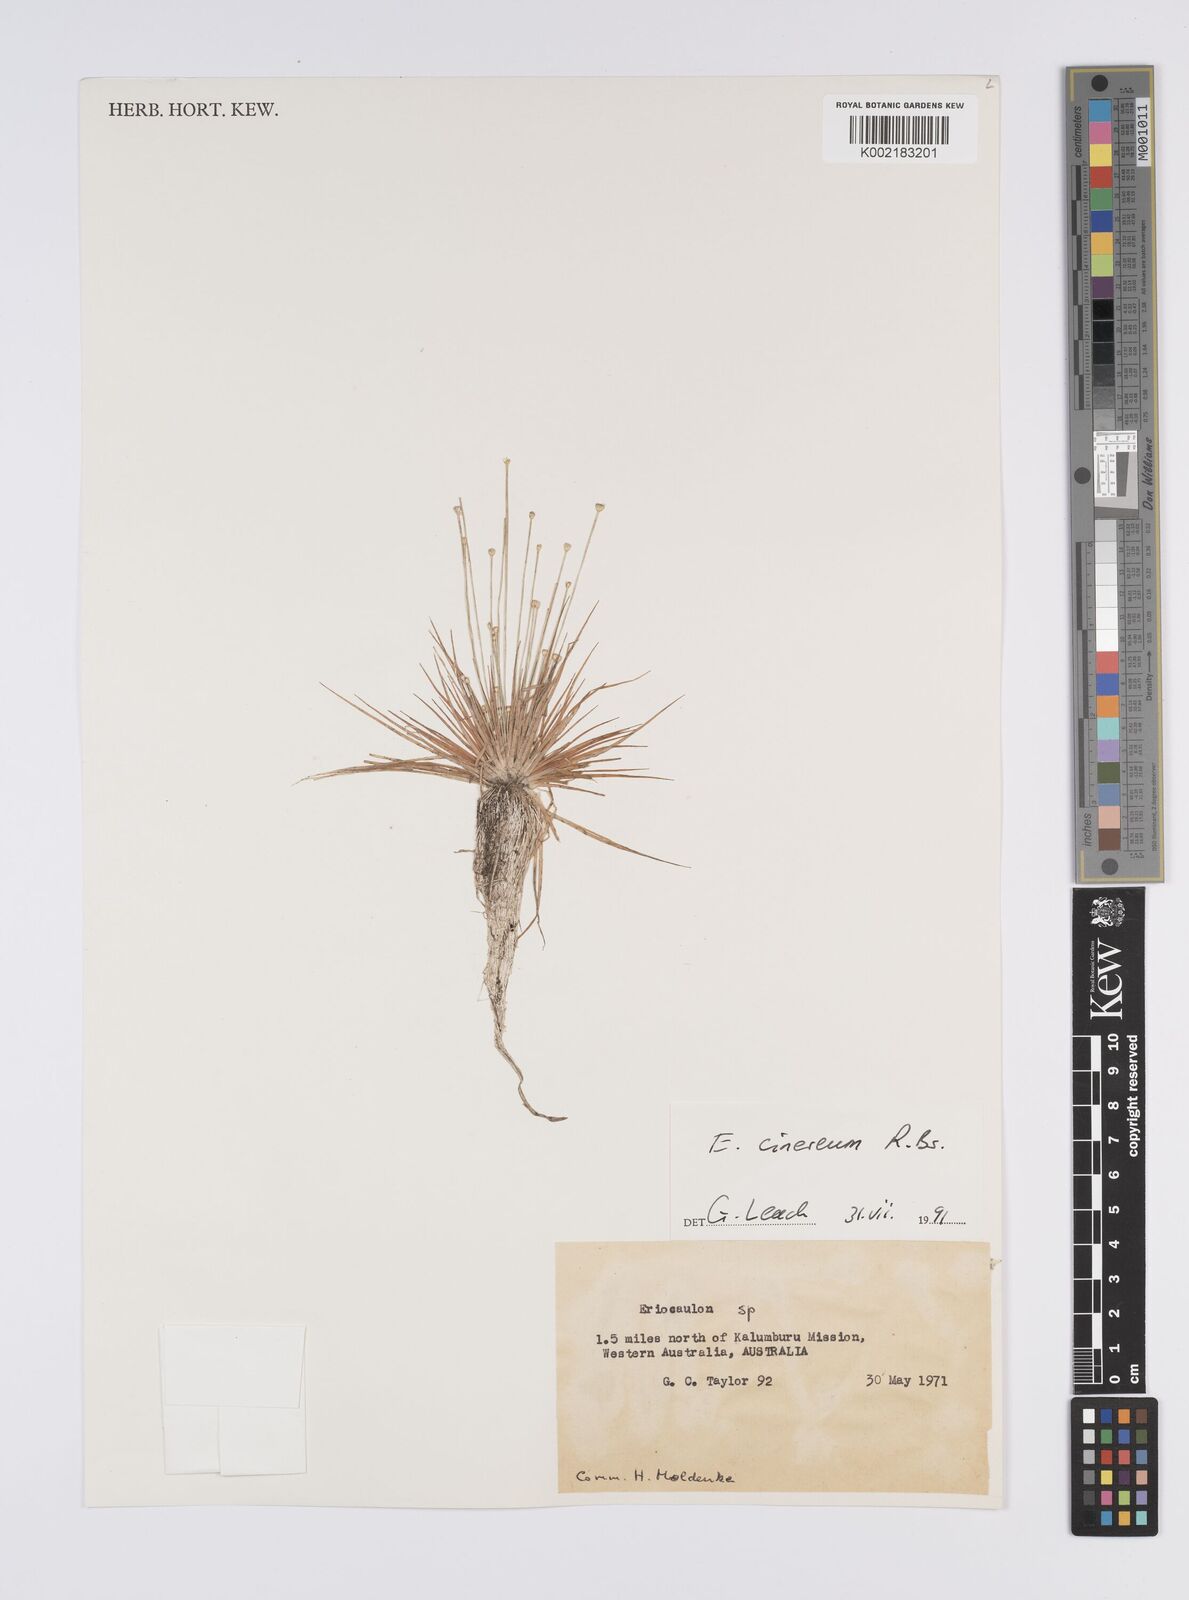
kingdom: Plantae
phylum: Tracheophyta
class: Liliopsida
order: Poales
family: Eriocaulaceae
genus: Eriocaulon
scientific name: Eriocaulon cinereum
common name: Ashy pipewort
